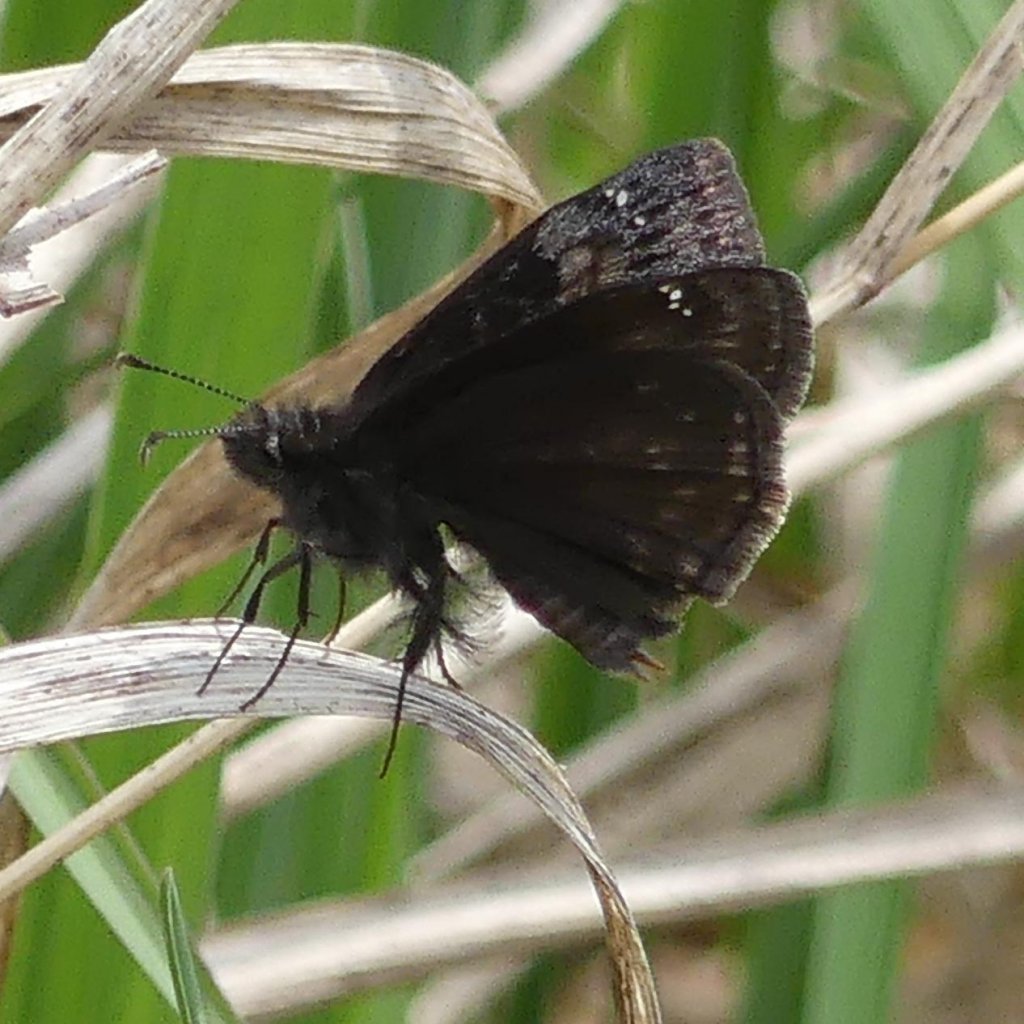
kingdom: Animalia
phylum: Arthropoda
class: Insecta
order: Lepidoptera
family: Hesperiidae
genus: Gesta
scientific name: Gesta
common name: Wild Indigo Duskywing
